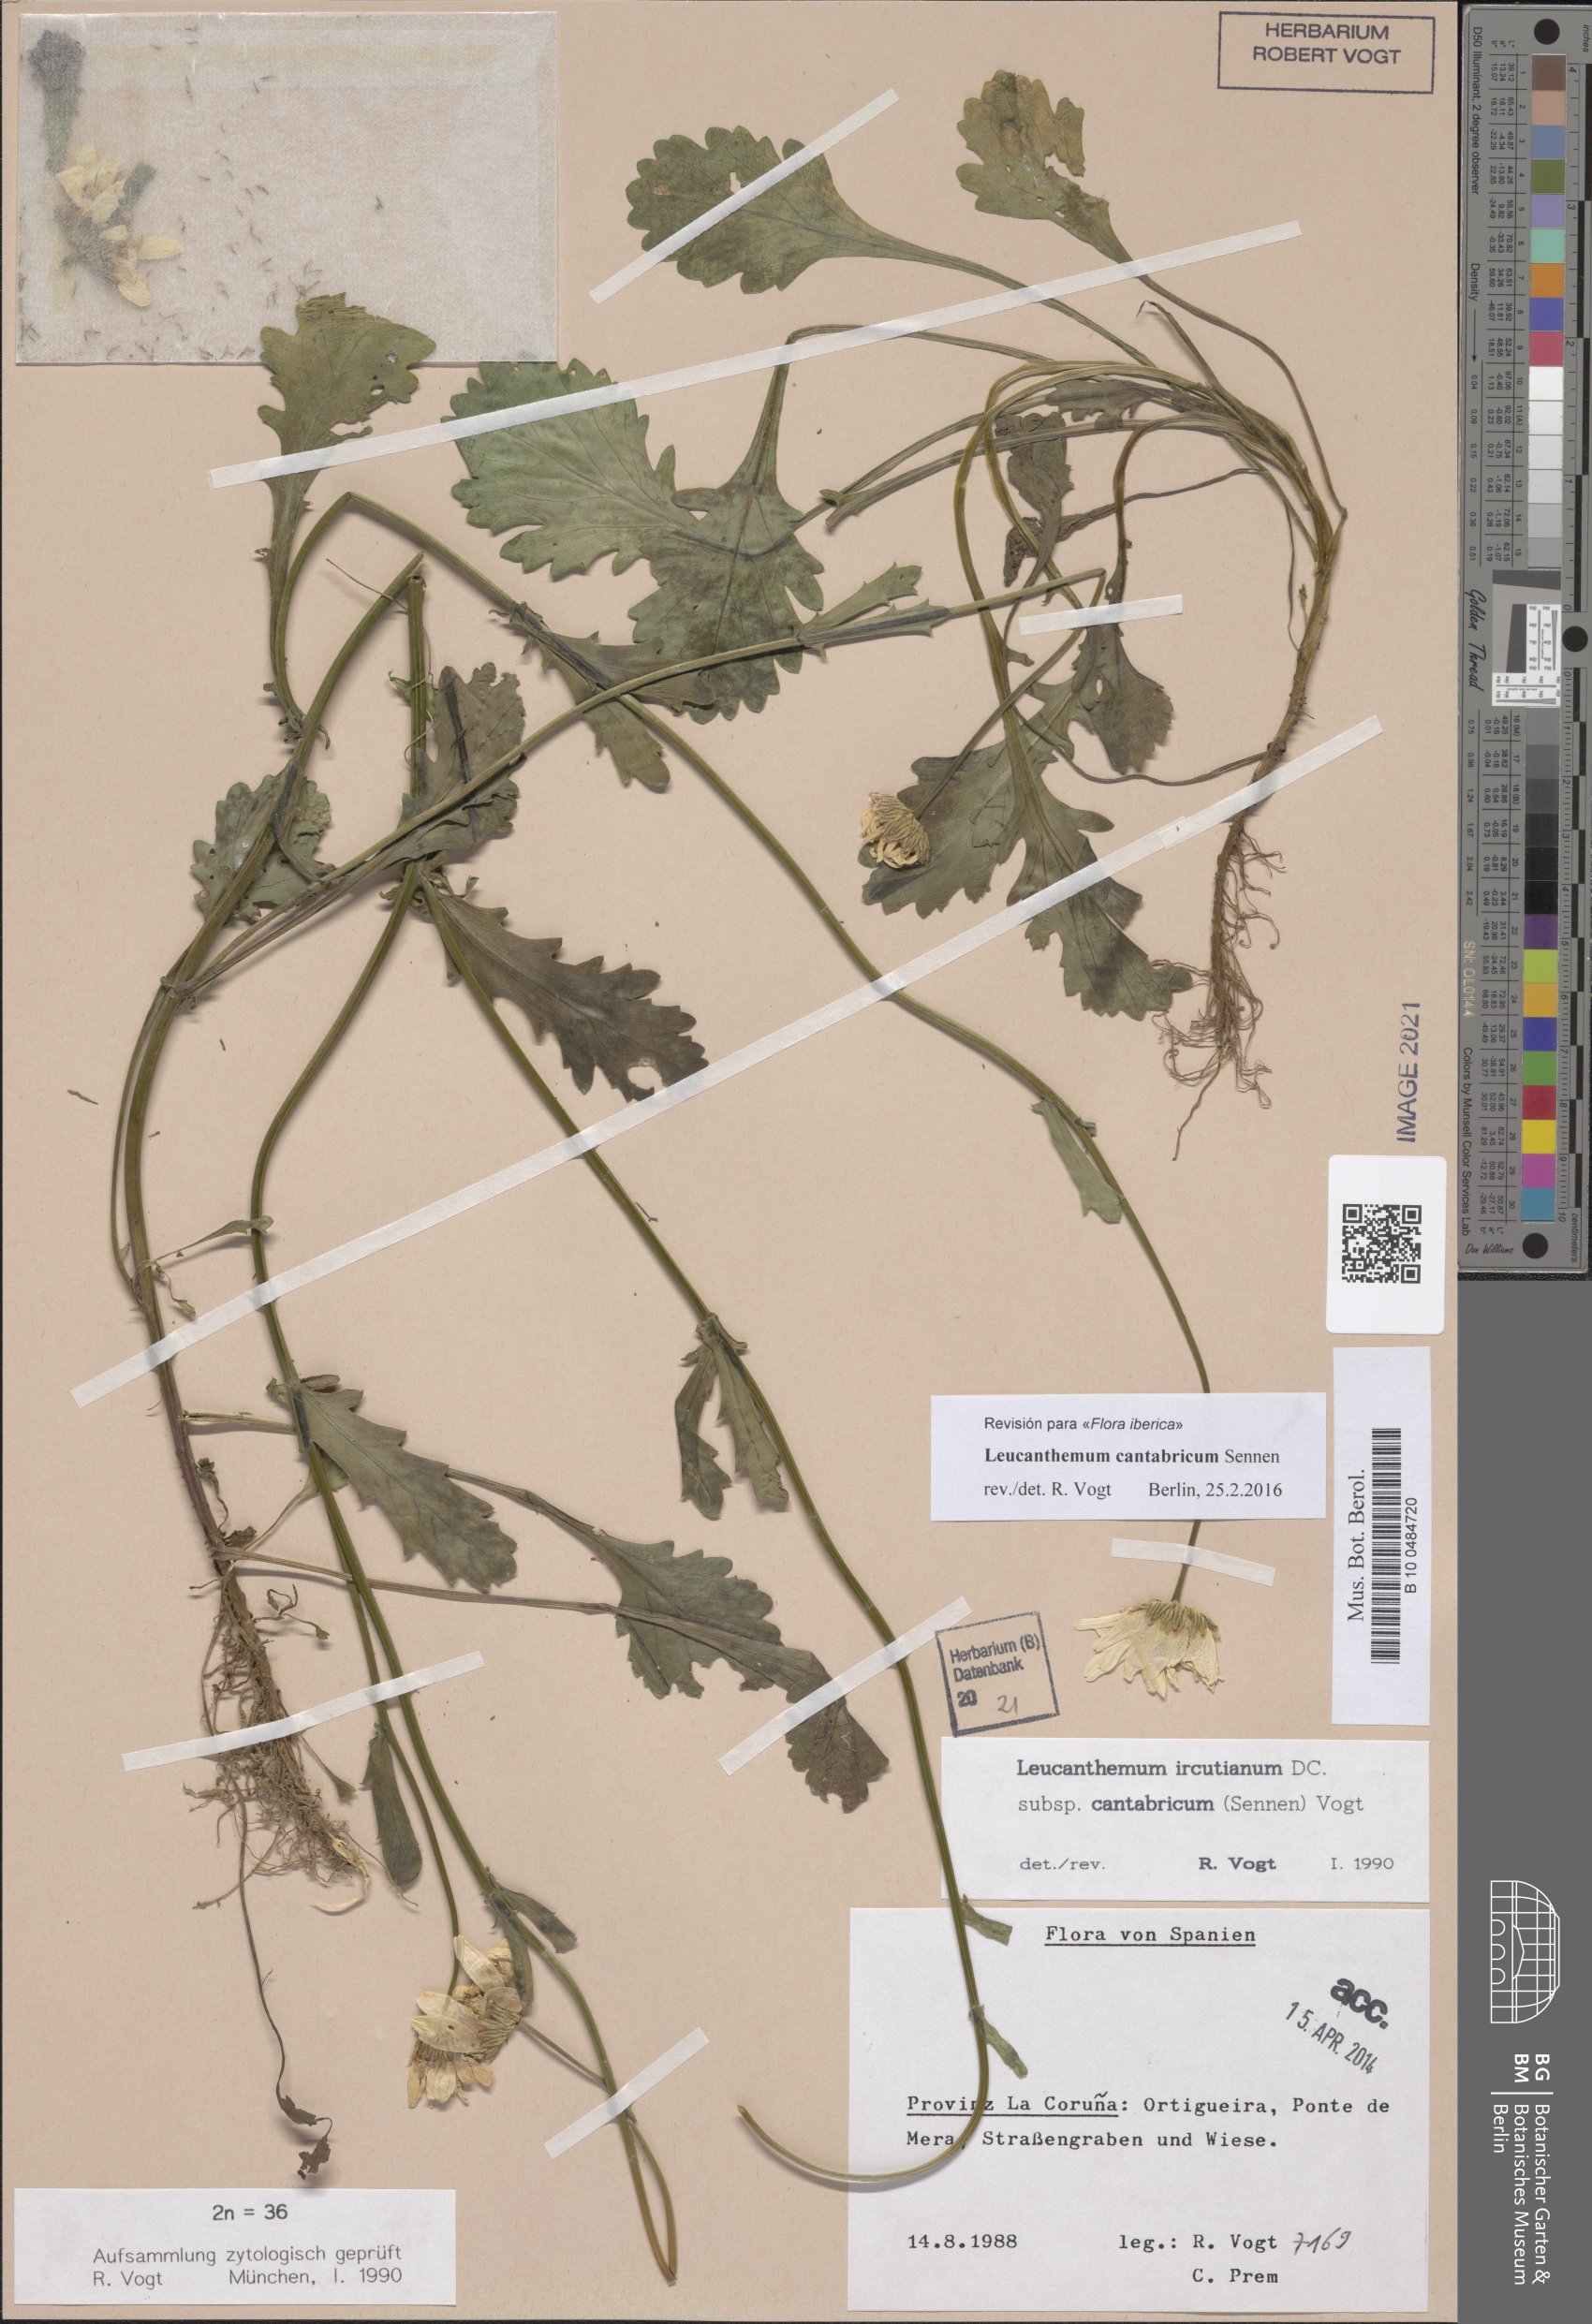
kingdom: Plantae
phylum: Tracheophyta
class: Magnoliopsida
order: Asterales
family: Asteraceae
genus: Leucanthemum
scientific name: Leucanthemum cantabricum
